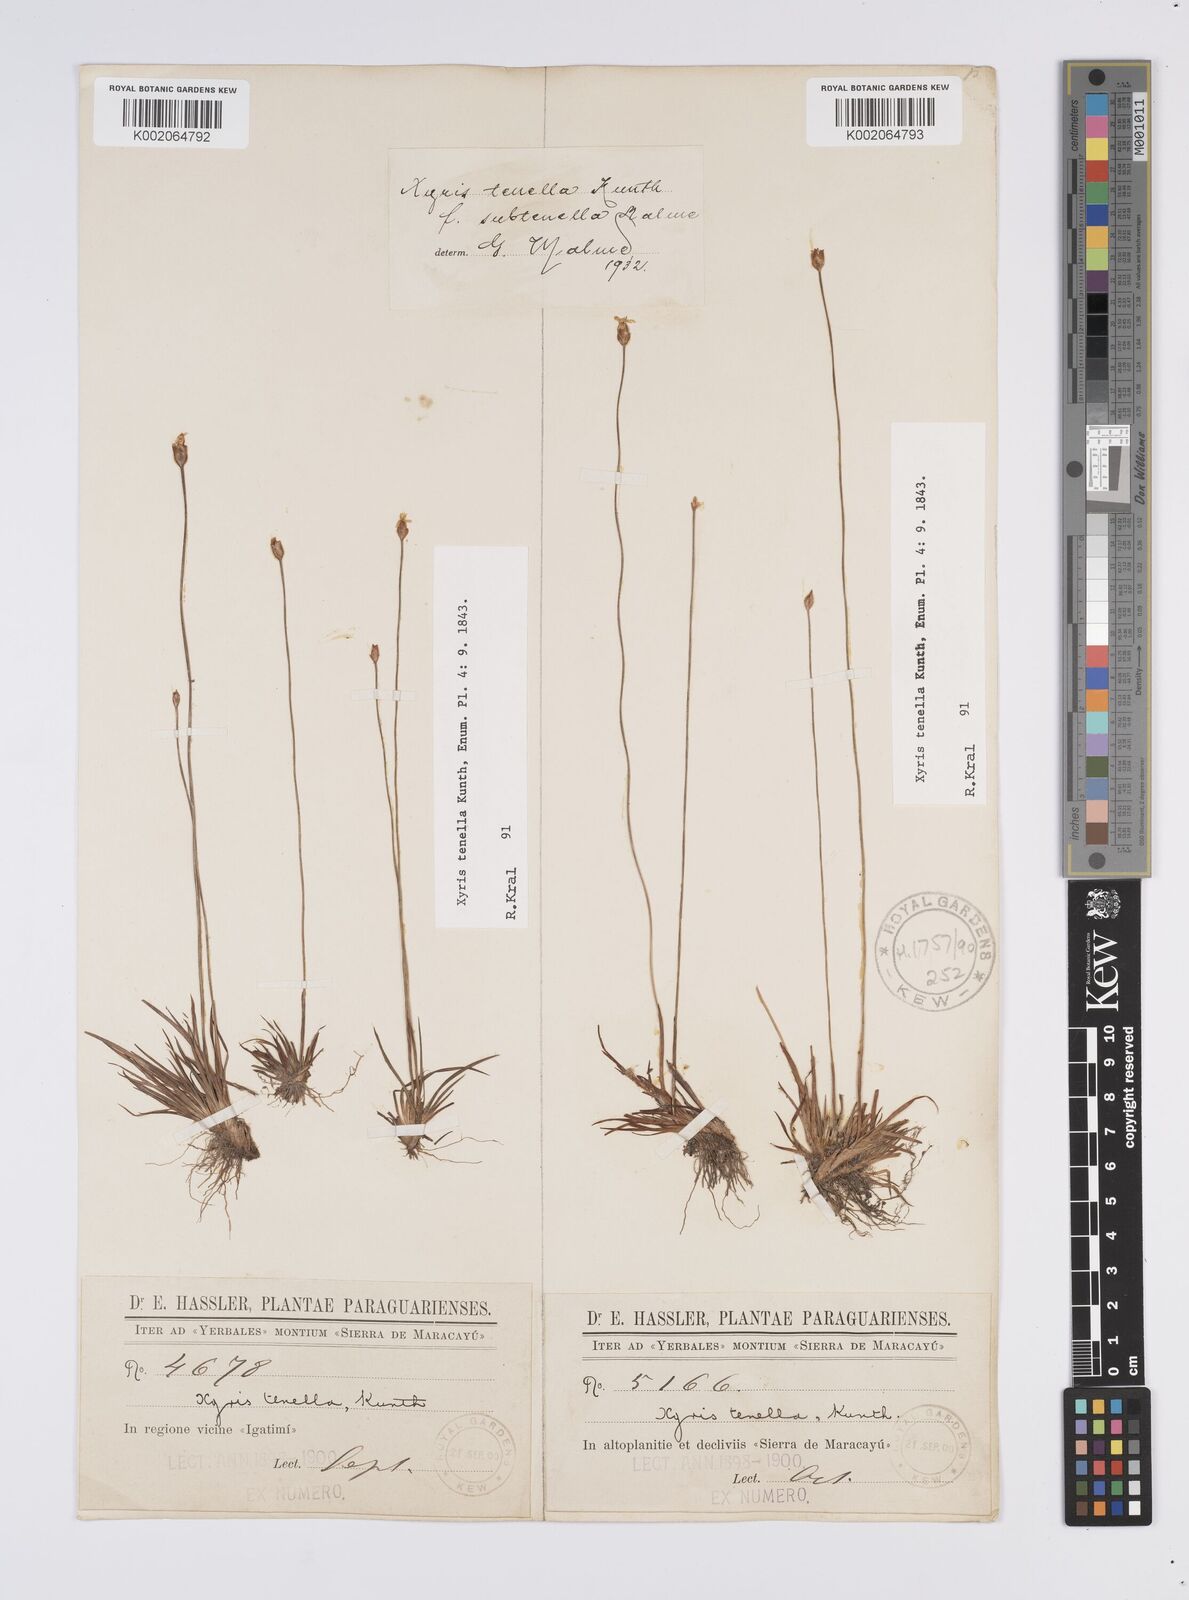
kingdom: Plantae
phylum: Tracheophyta
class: Liliopsida
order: Poales
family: Xyridaceae
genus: Xyris
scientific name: Xyris tenella
